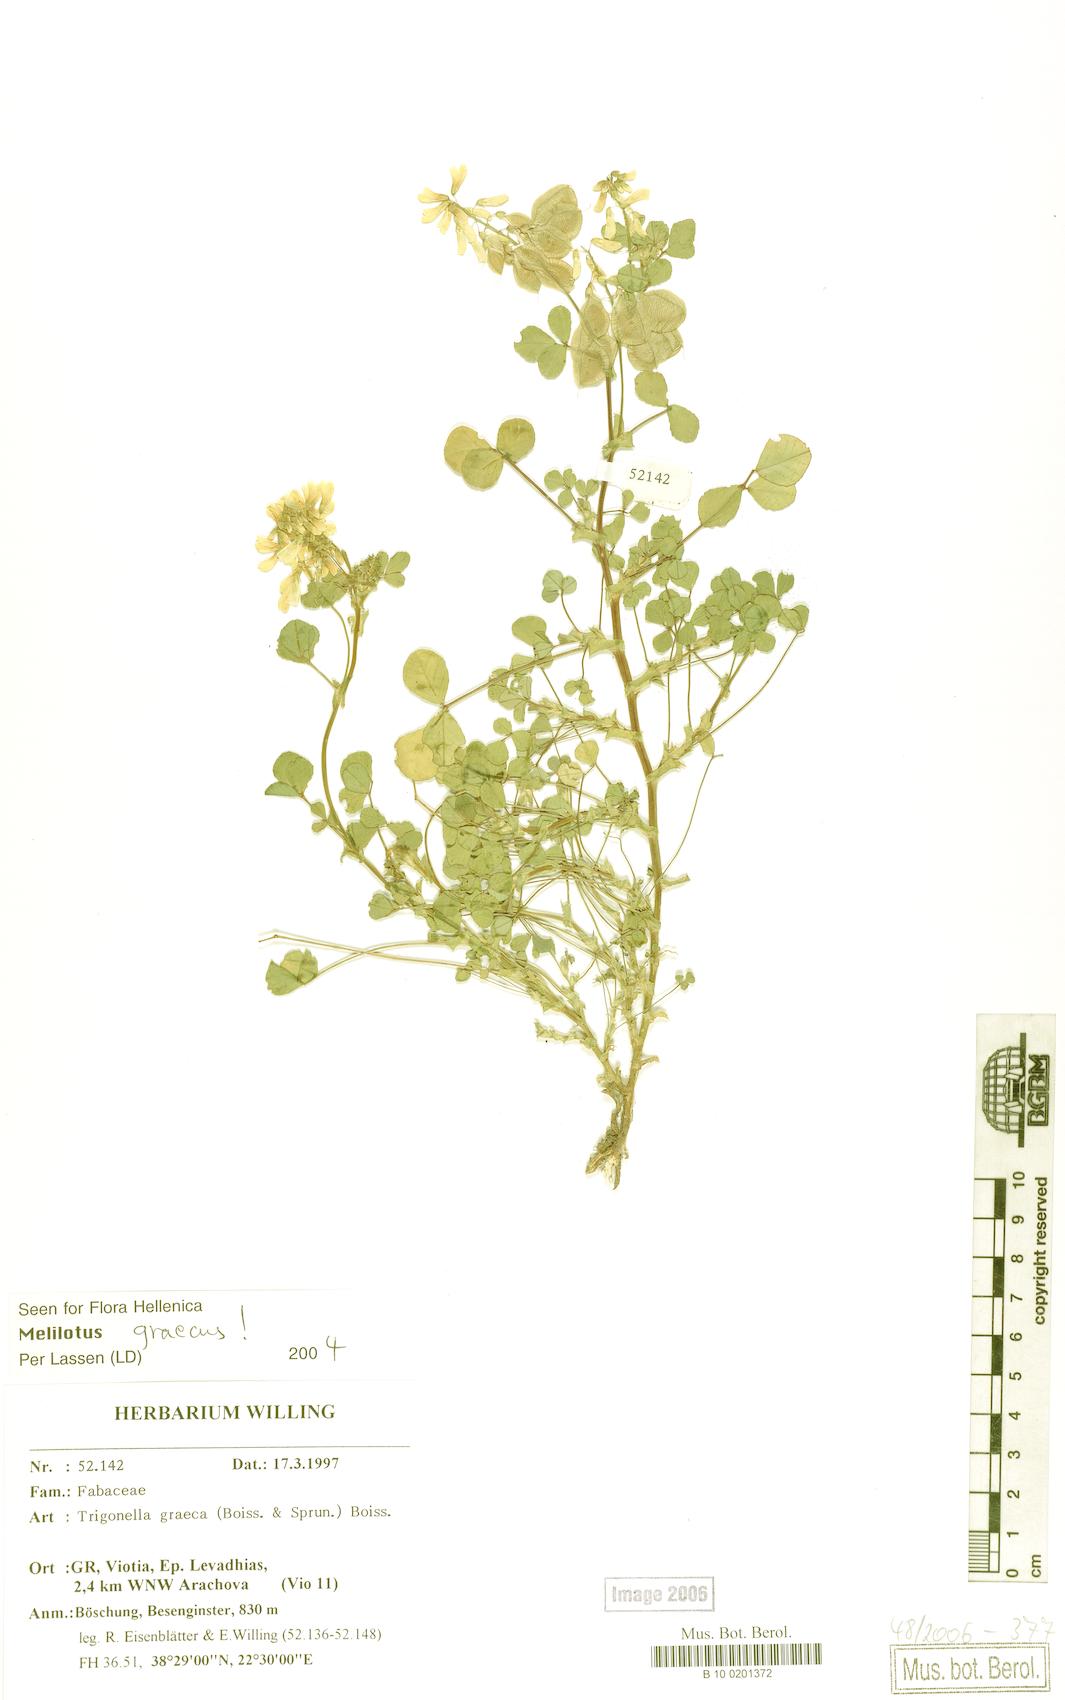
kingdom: Plantae
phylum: Tracheophyta
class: Magnoliopsida
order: Fabales
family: Fabaceae
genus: Trigonella
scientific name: Trigonella graeca
